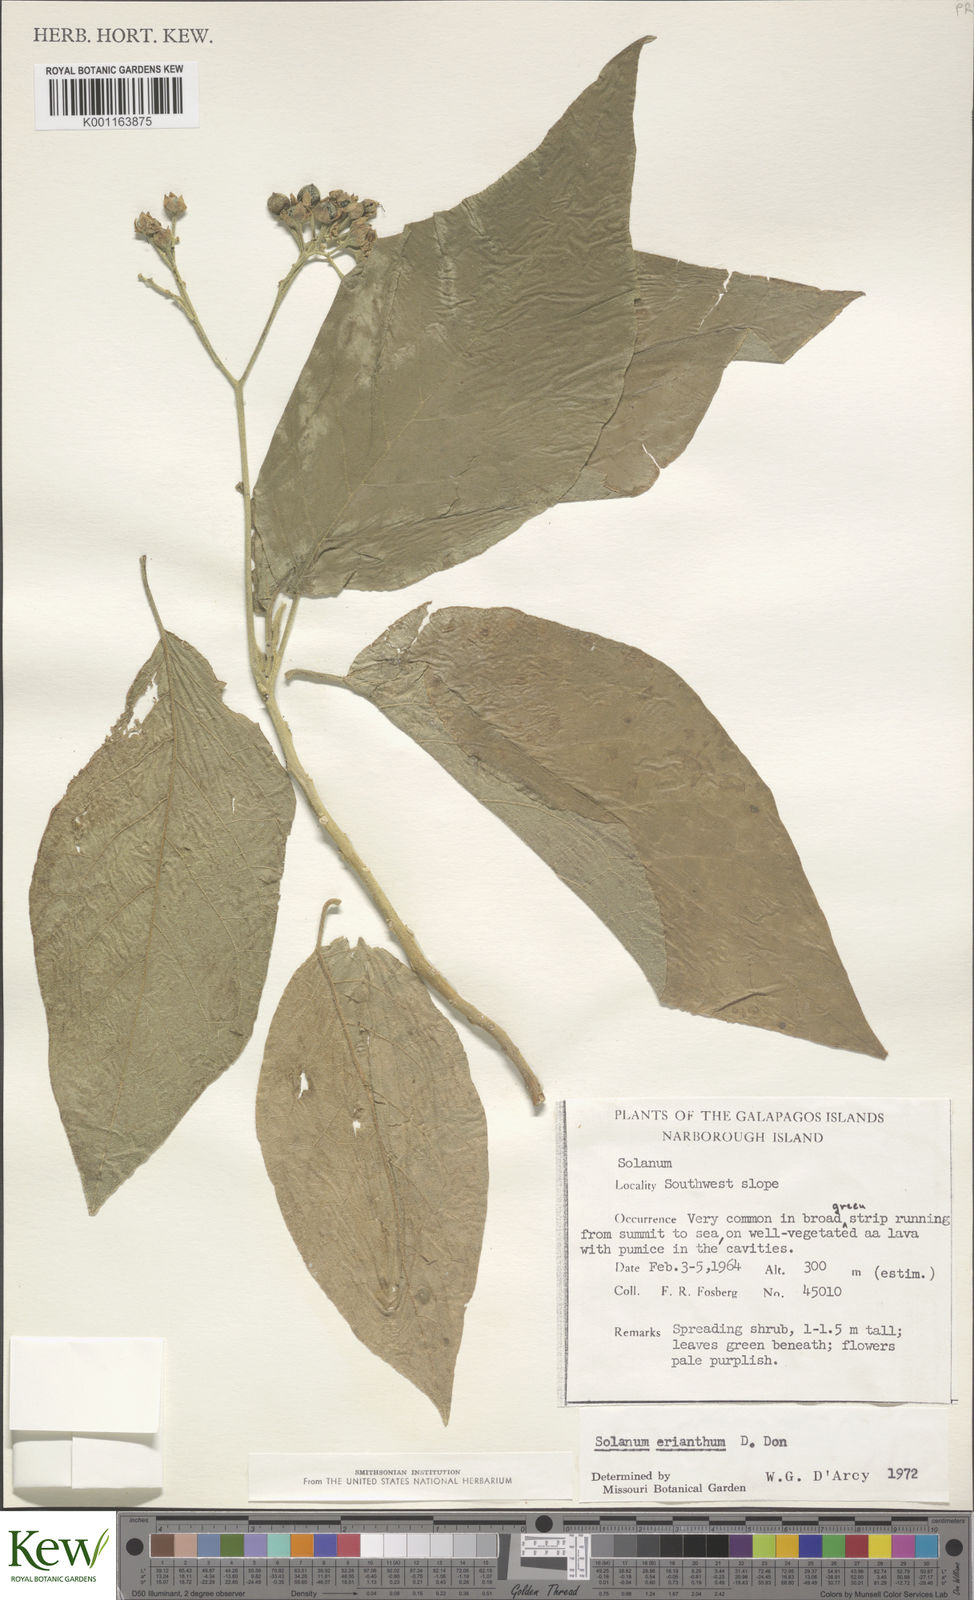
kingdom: Plantae
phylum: Tracheophyta
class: Magnoliopsida
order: Solanales
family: Solanaceae
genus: Solanum
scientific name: Solanum erianthum
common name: Tobacco-tree
